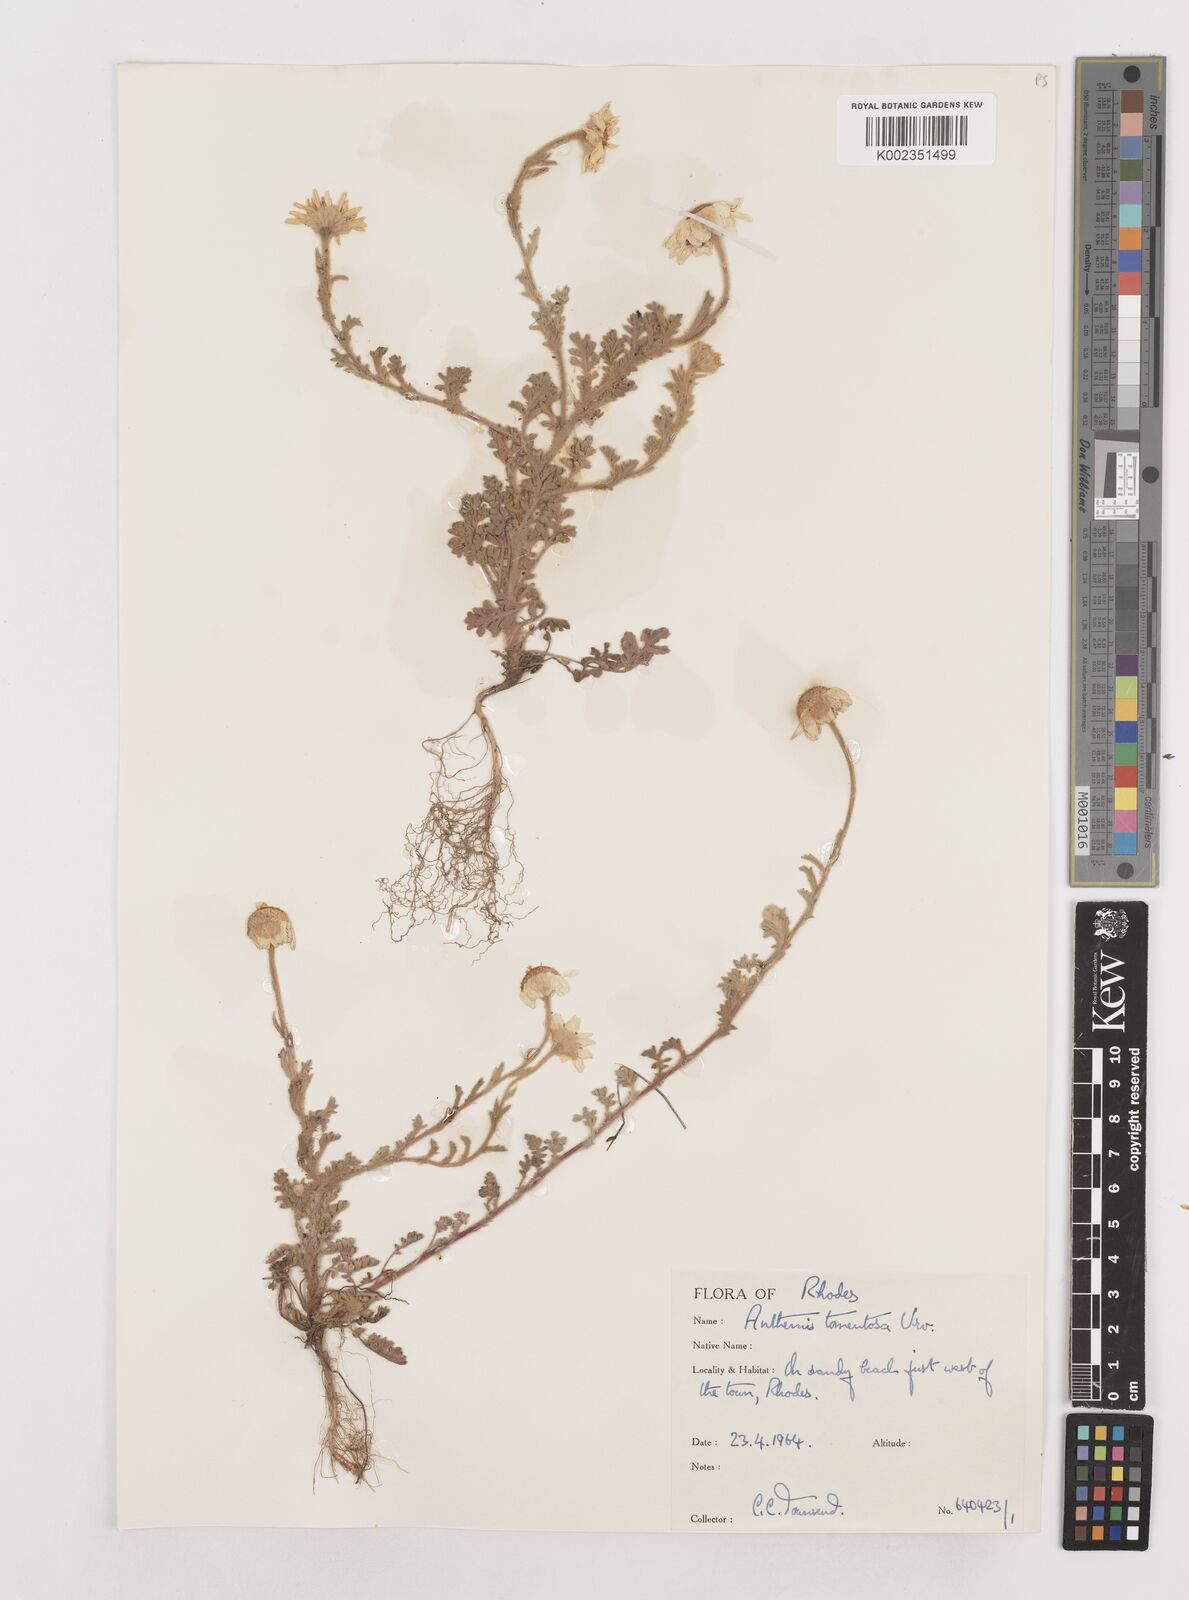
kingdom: Plantae
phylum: Tracheophyta
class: Magnoliopsida
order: Asterales
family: Asteraceae
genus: Anthemis
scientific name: Anthemis tomentosa
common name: Woolly chamomile
